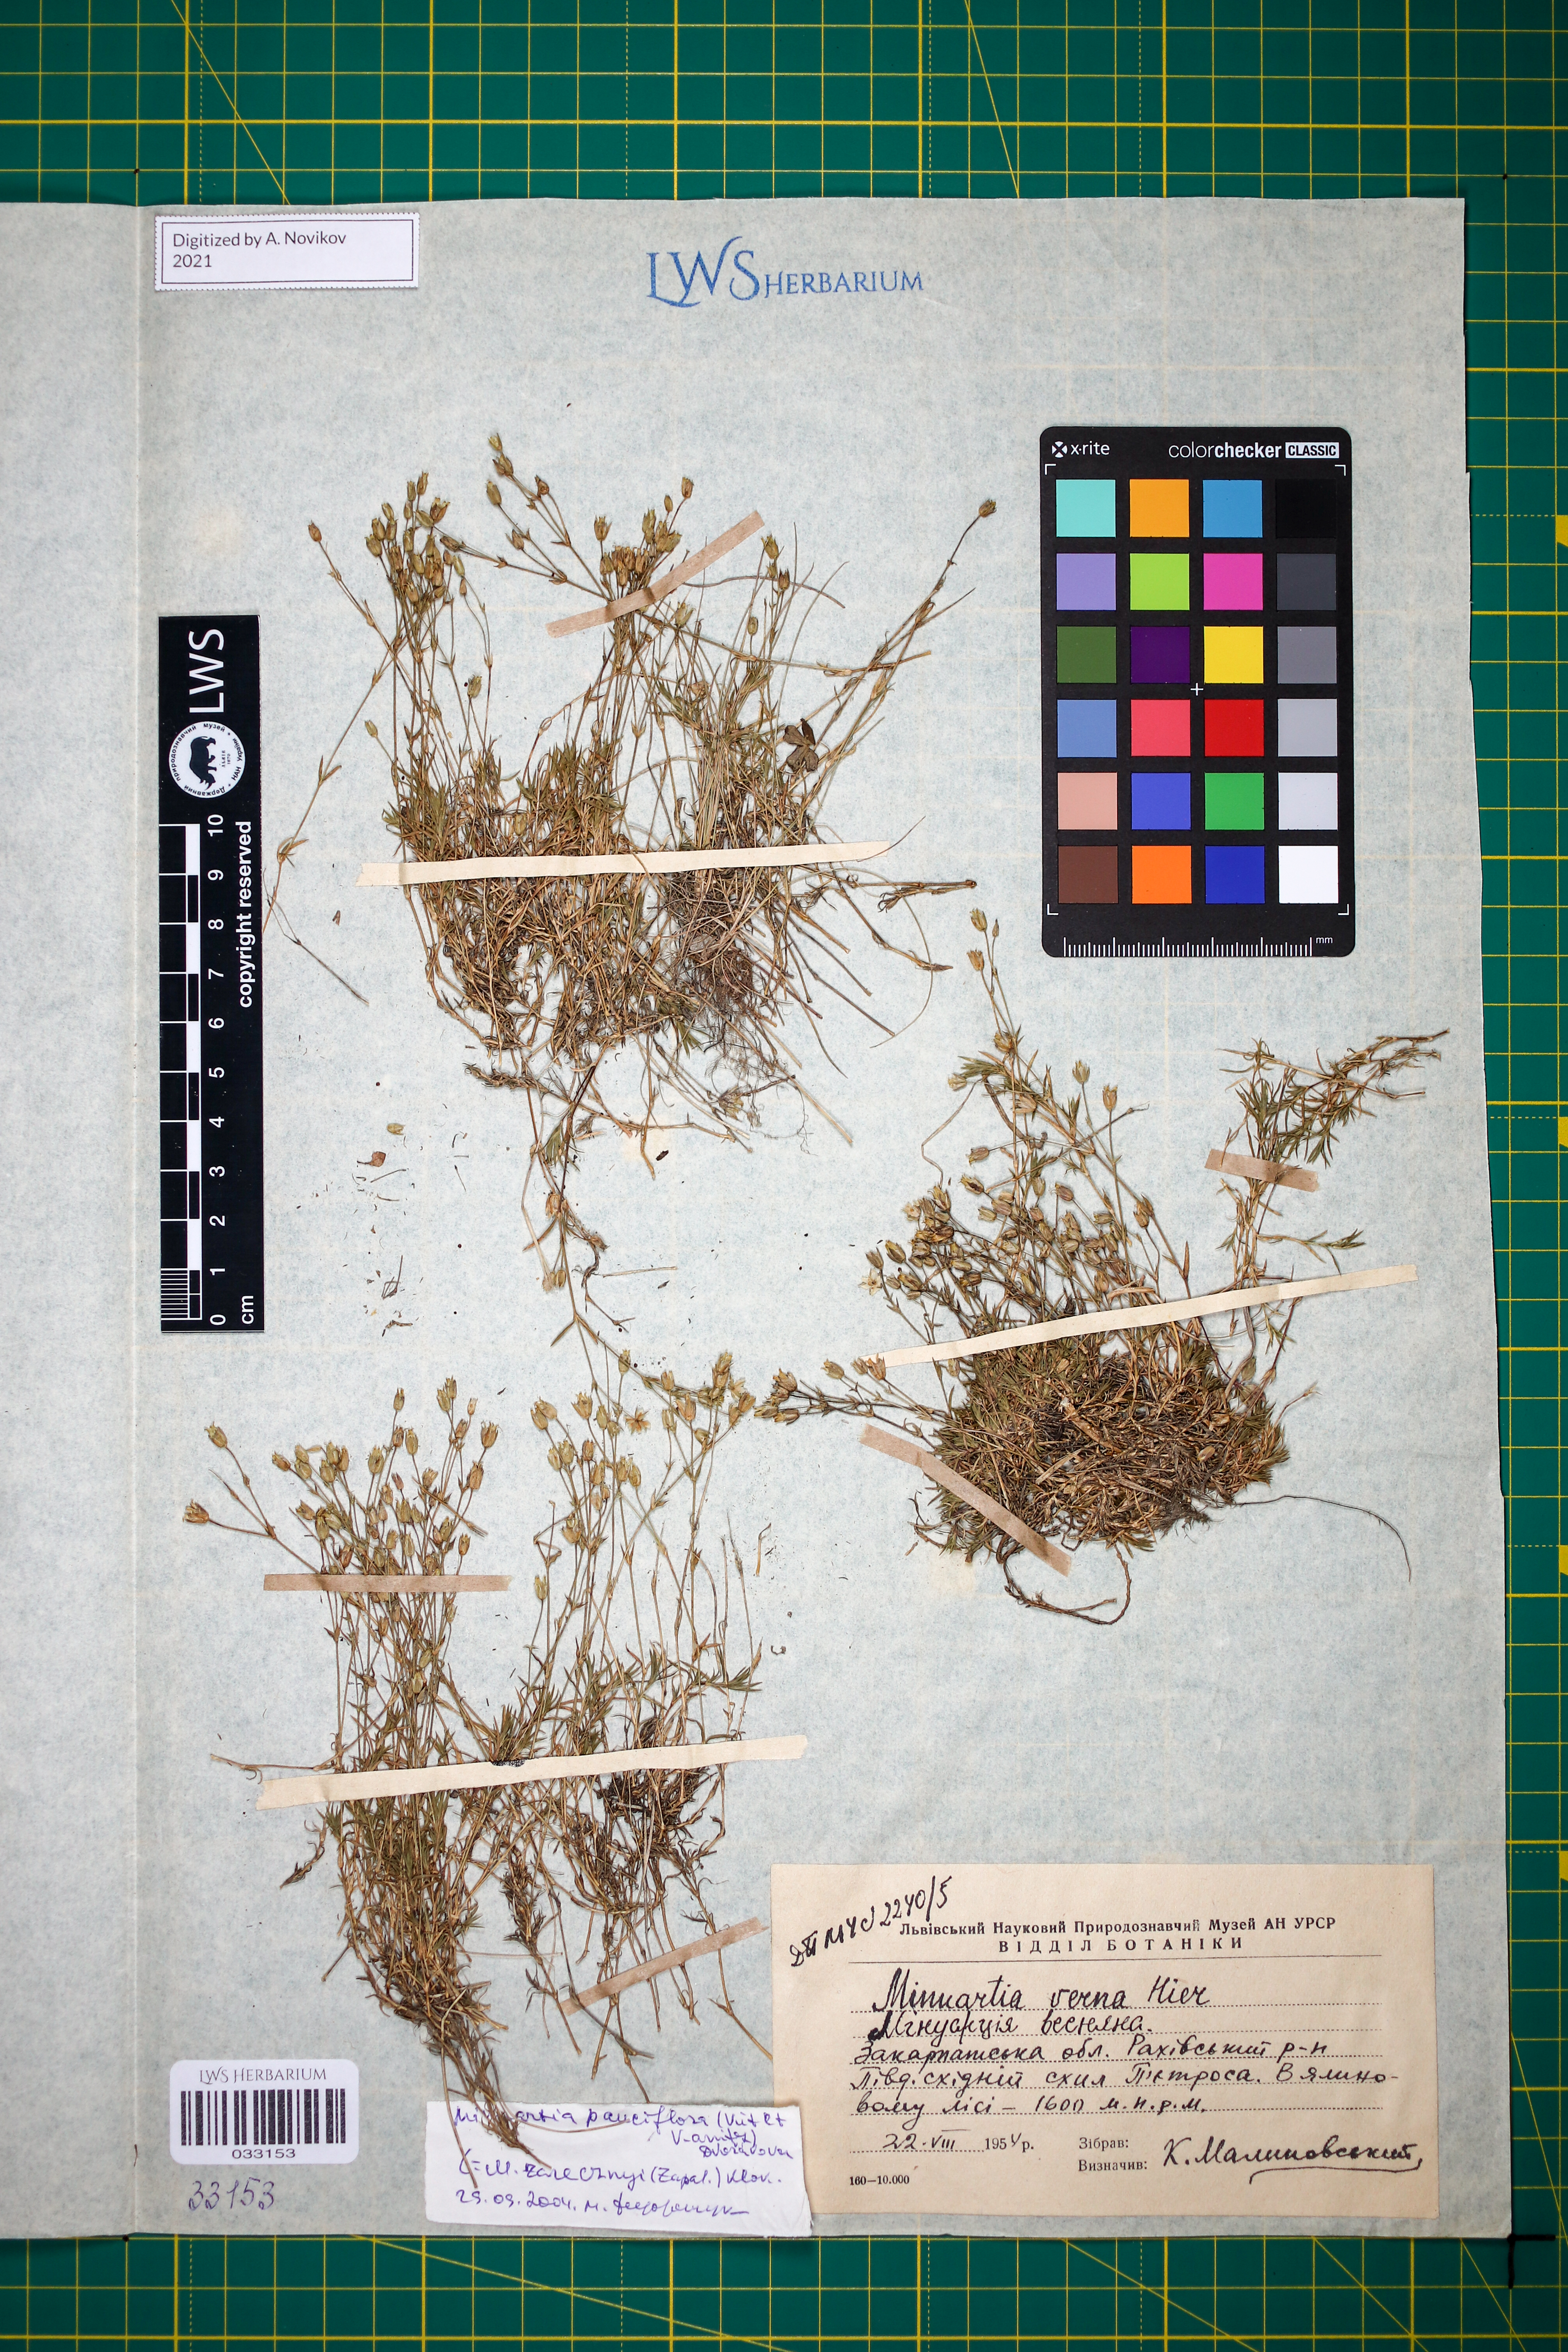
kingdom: Plantae
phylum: Tracheophyta
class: Magnoliopsida
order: Caryophyllales
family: Caryophyllaceae
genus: Minuartia
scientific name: Minuartia pauciflora
